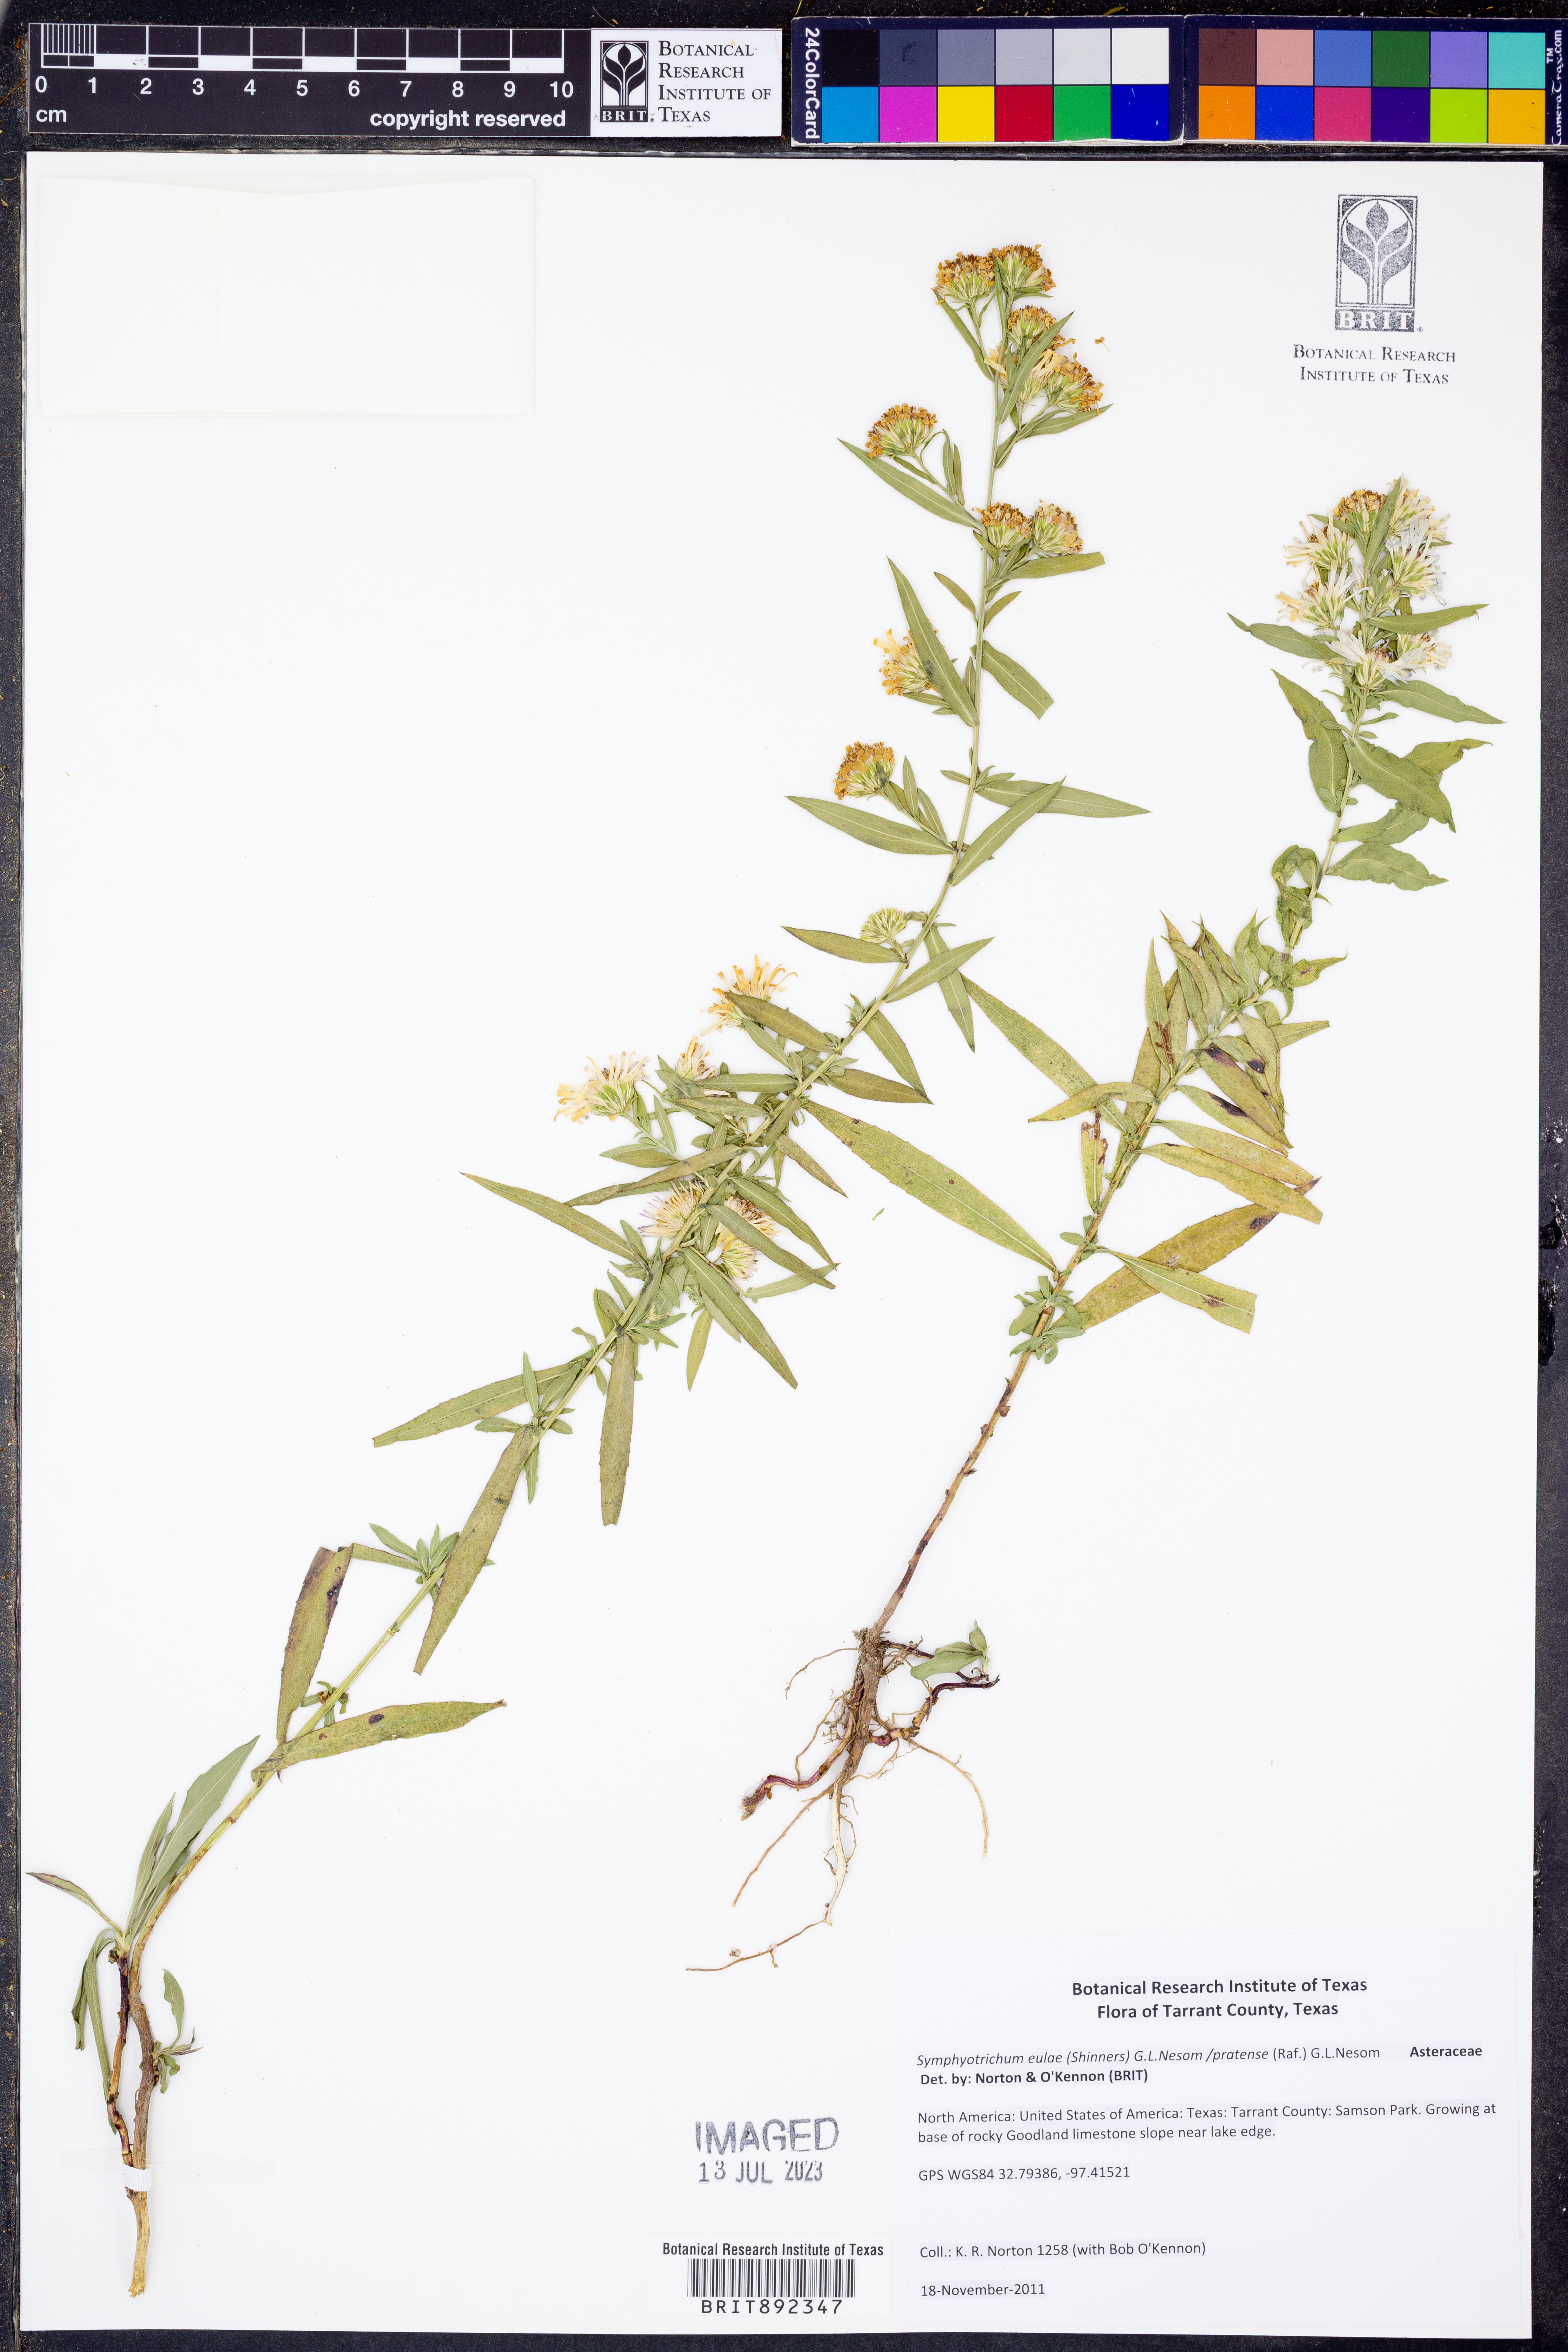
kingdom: Plantae
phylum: Tracheophyta
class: Magnoliopsida
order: Asterales
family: Asteraceae
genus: Symphyotrichum
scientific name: Symphyotrichum eulae
